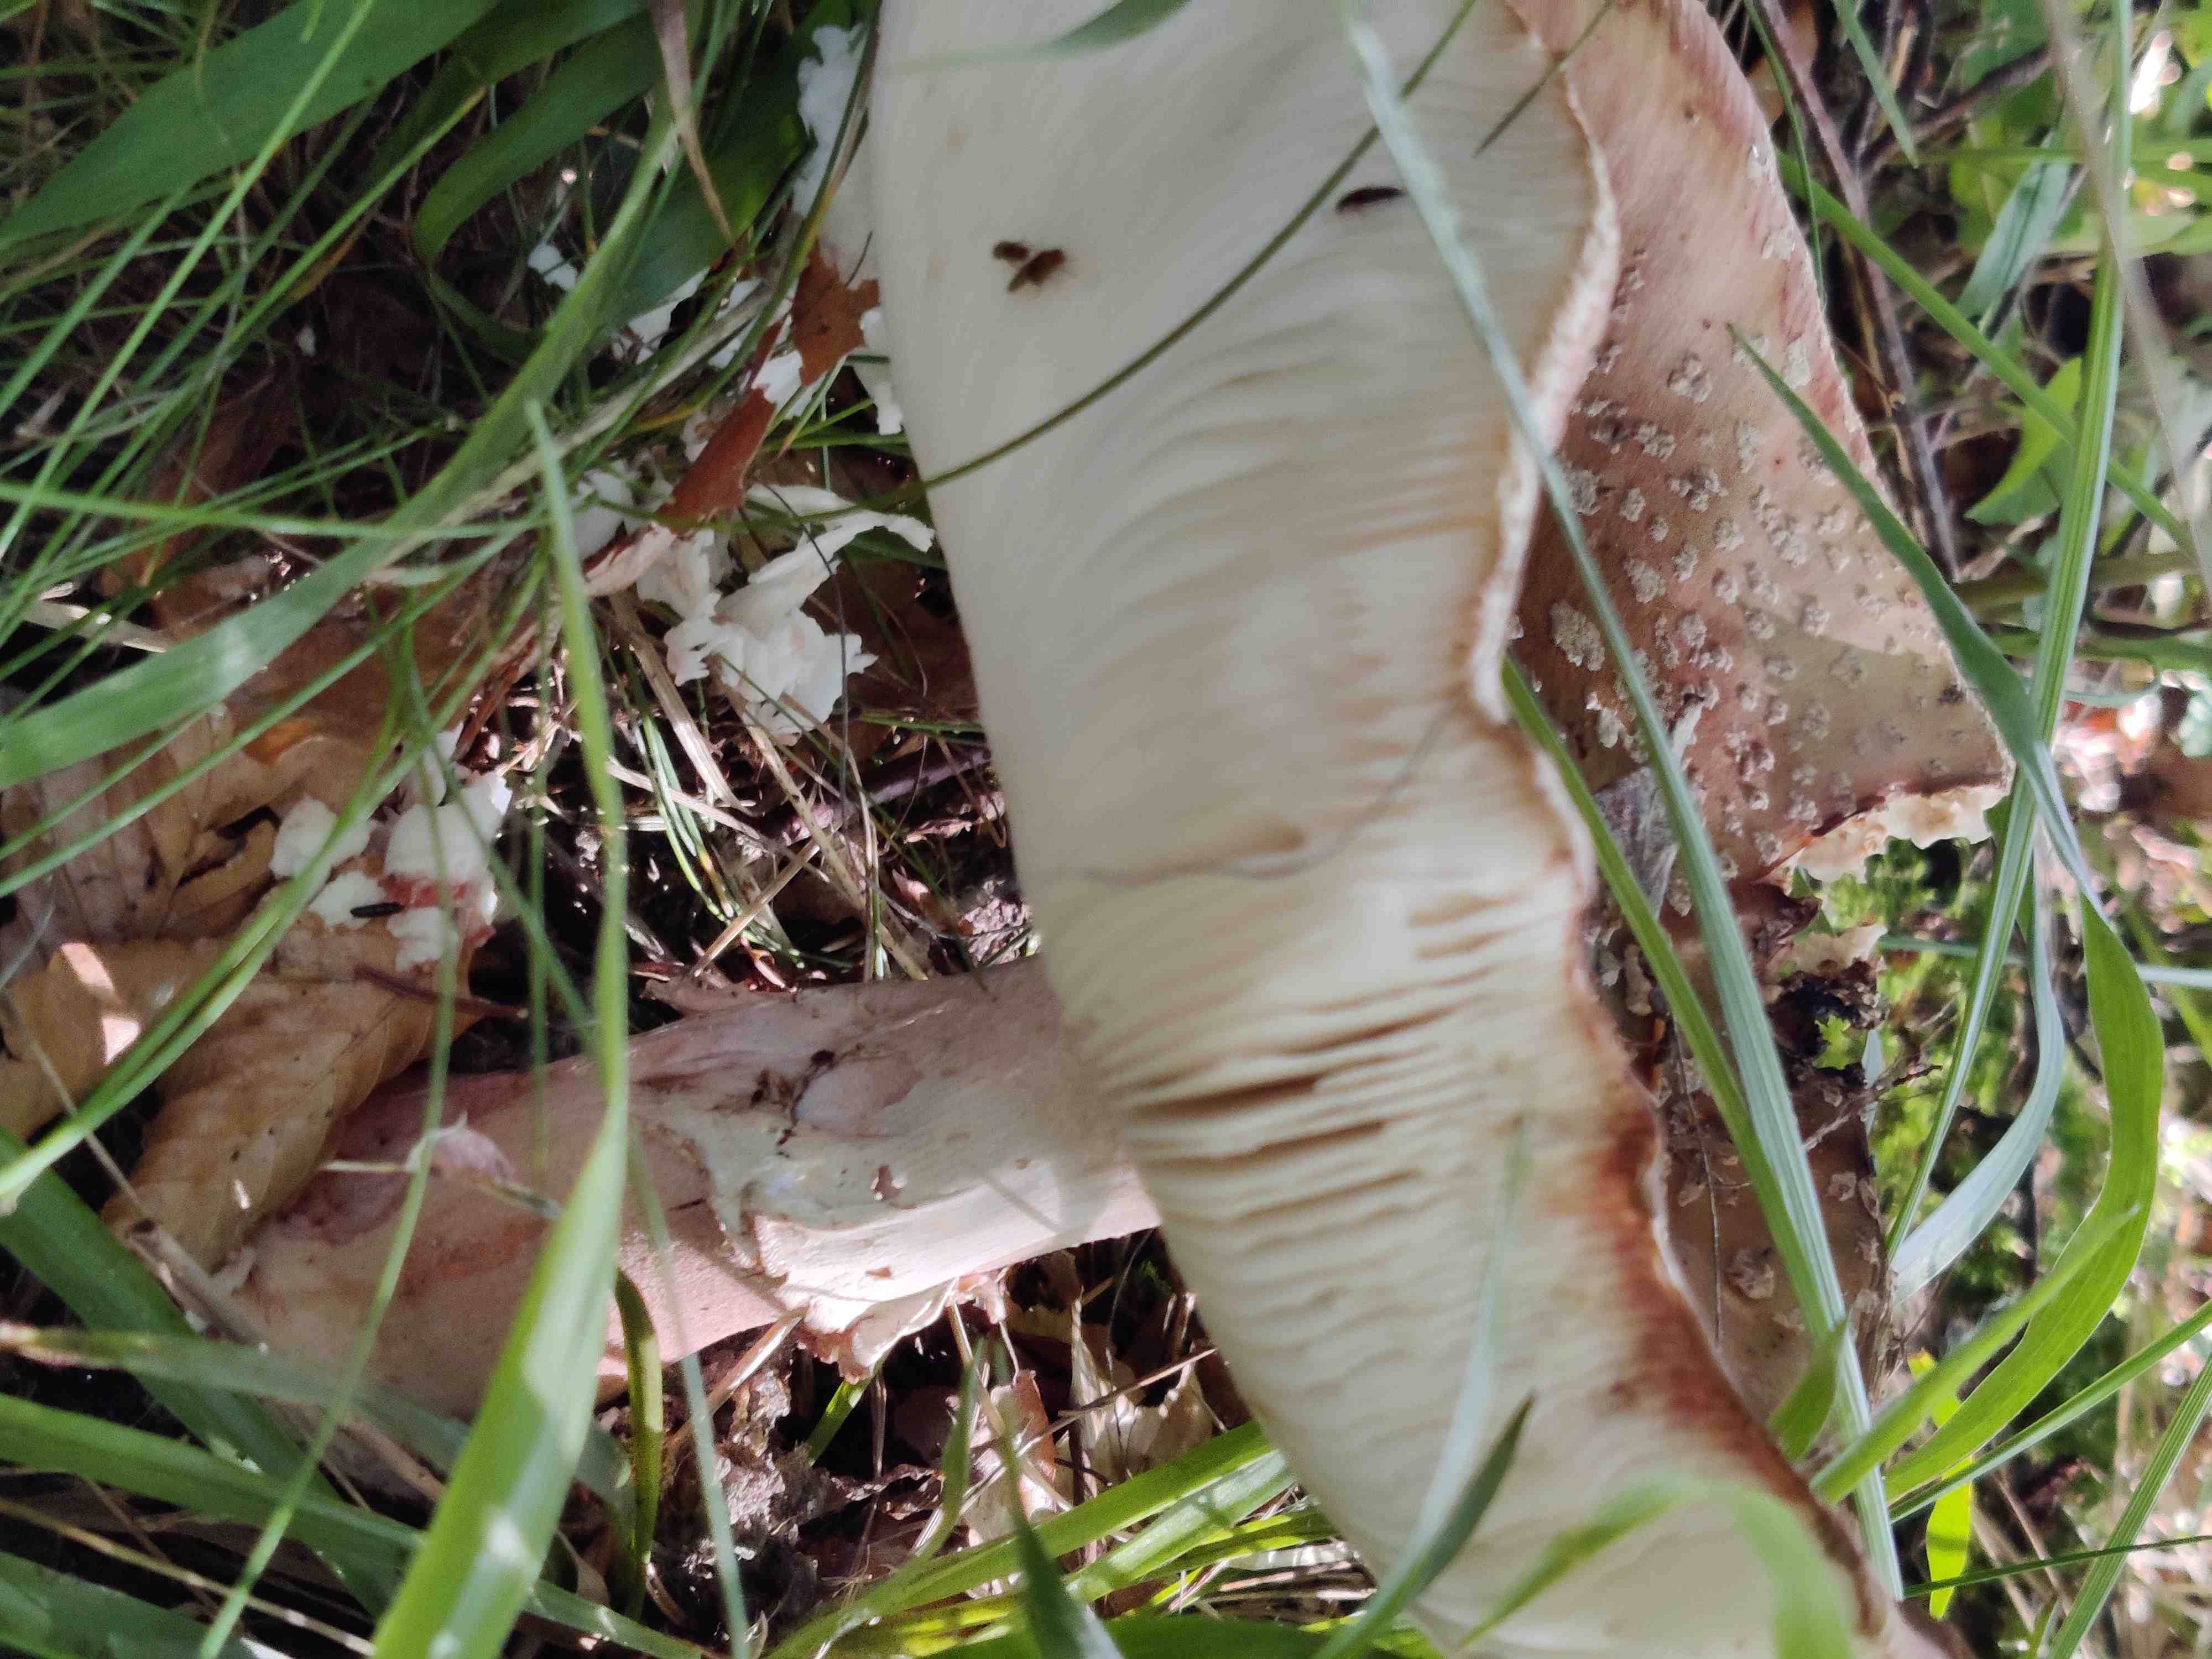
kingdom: Fungi
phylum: Basidiomycota
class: Agaricomycetes
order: Agaricales
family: Amanitaceae
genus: Amanita
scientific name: Amanita rubescens
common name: rødmende fluesvamp
